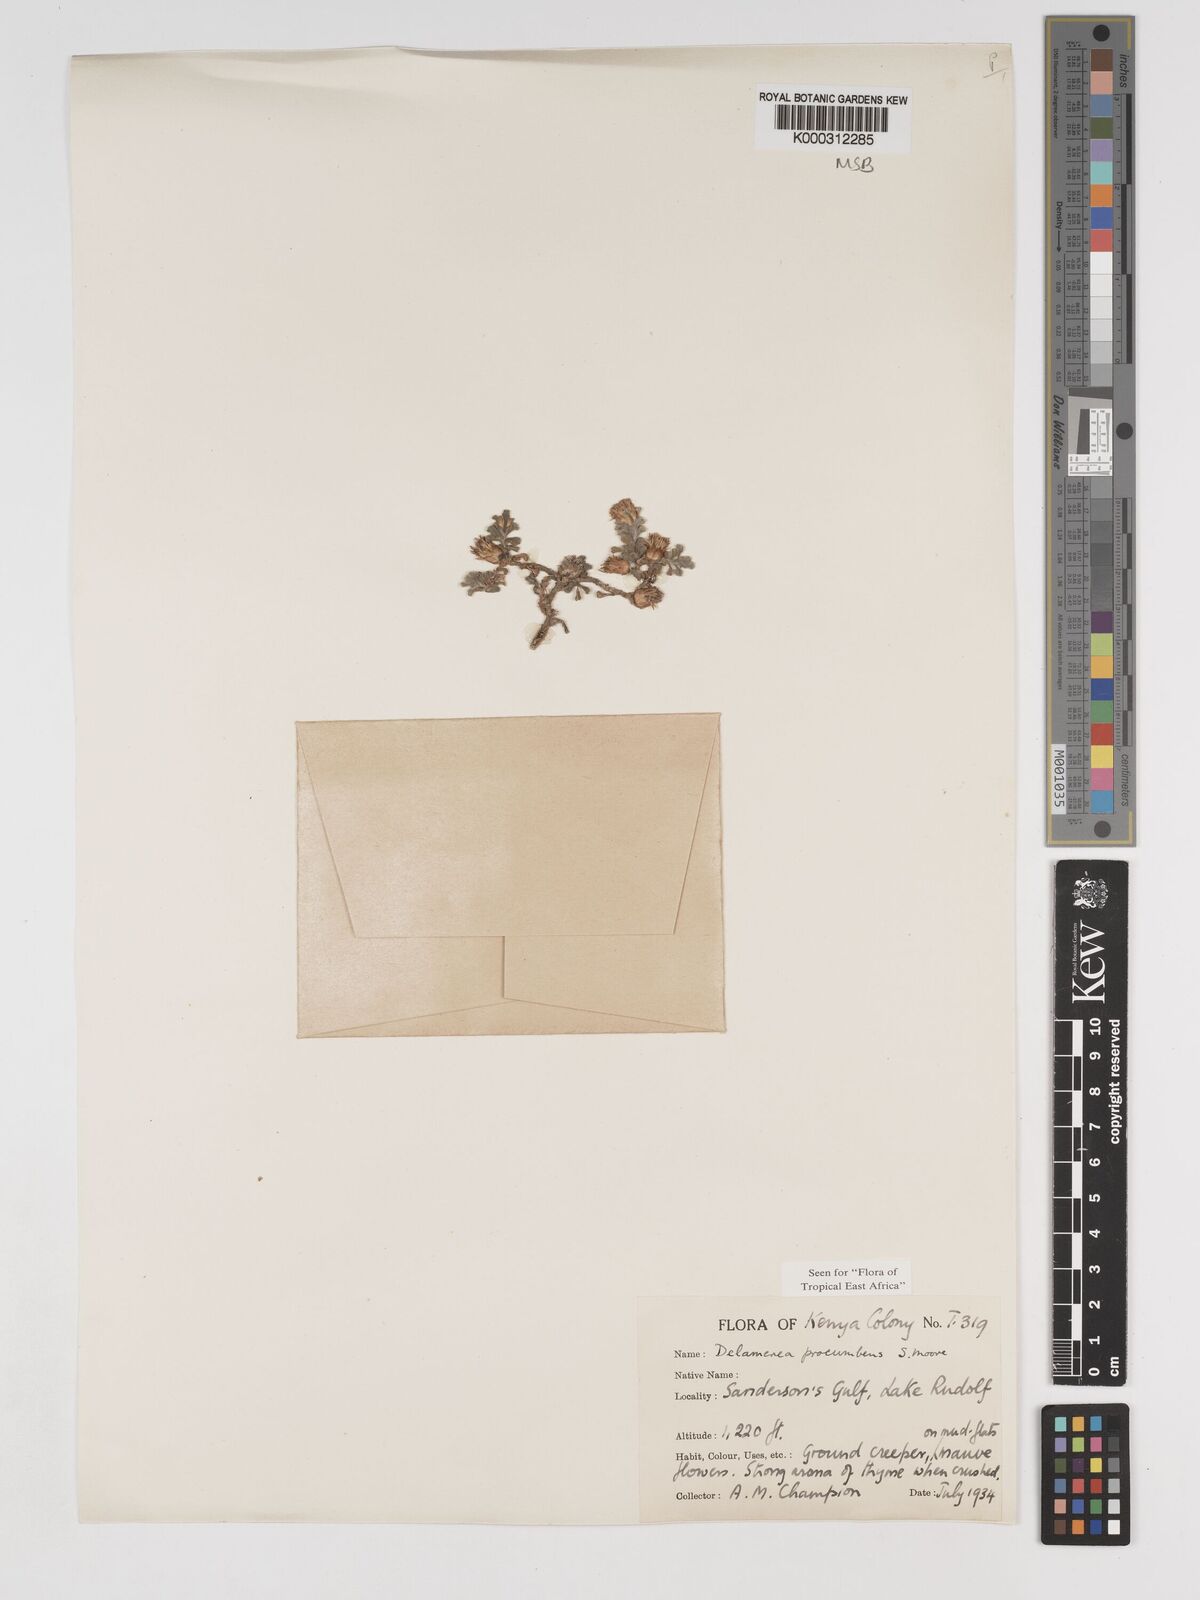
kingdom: Plantae
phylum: Tracheophyta
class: Magnoliopsida
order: Asterales
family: Asteraceae
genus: Delamerea
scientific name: Delamerea procumbens
